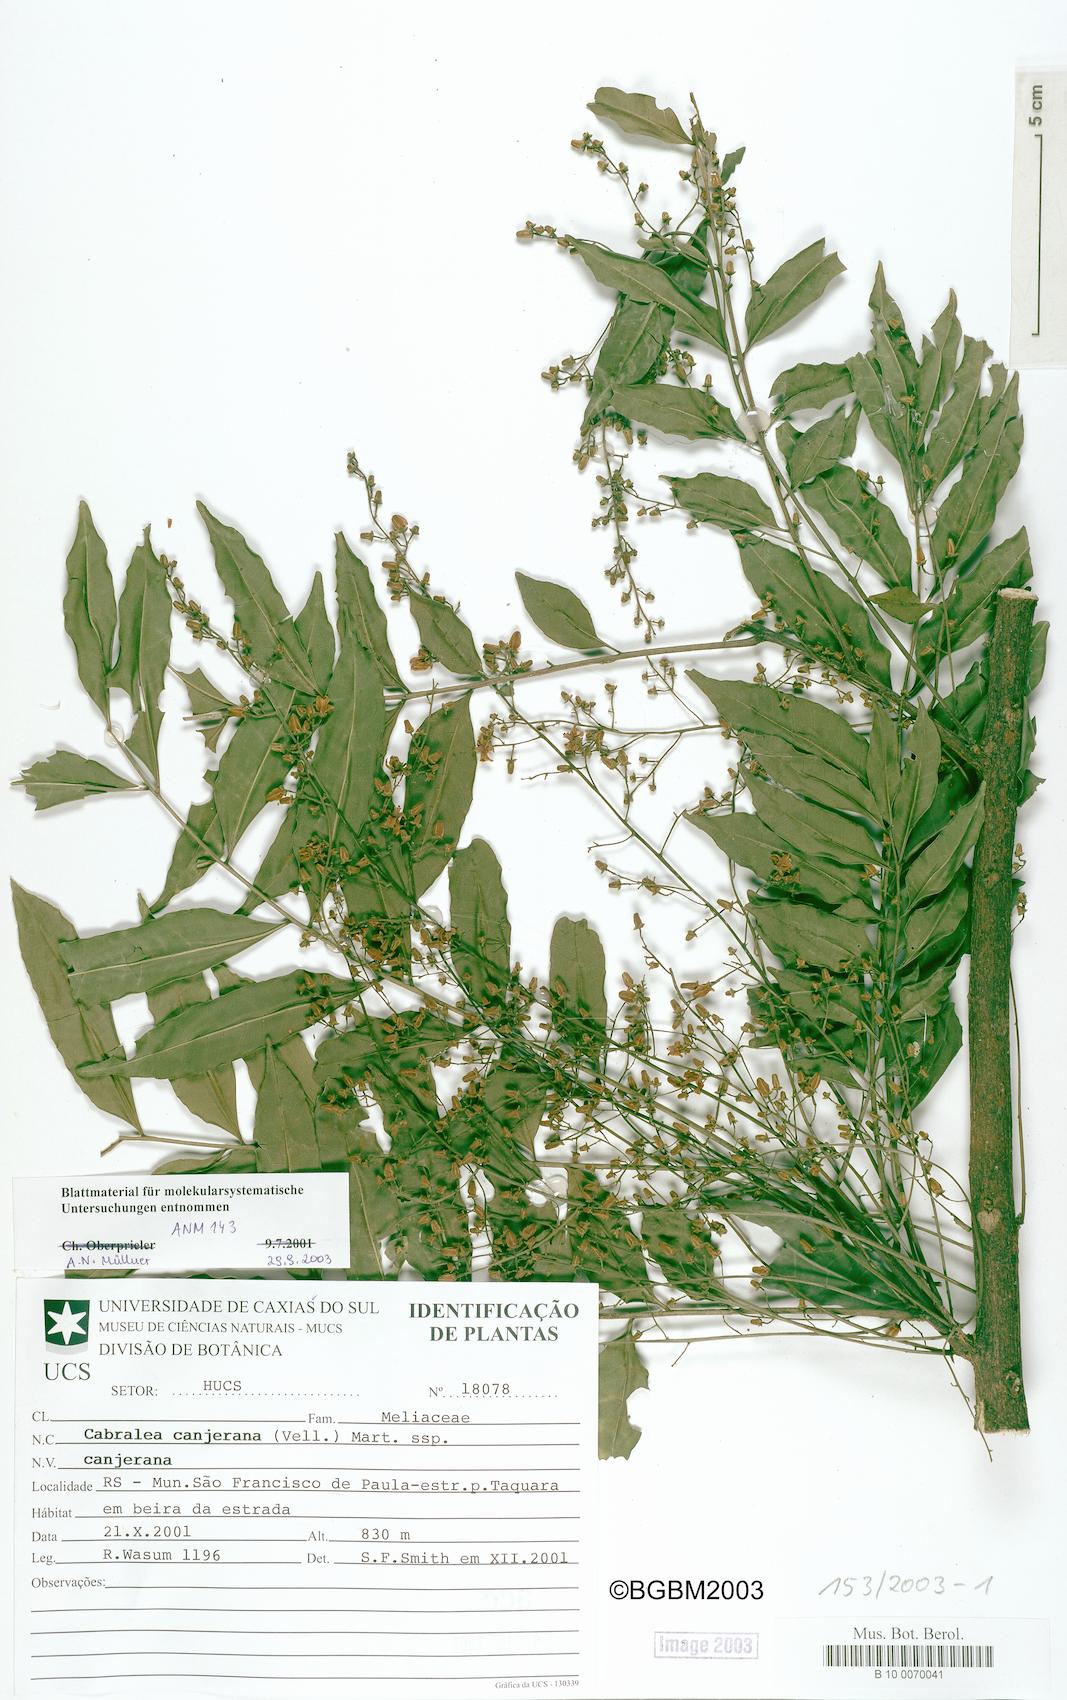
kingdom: Plantae
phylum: Tracheophyta
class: Magnoliopsida
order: Sapindales
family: Meliaceae
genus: Cabralea
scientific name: Cabralea canjerana
